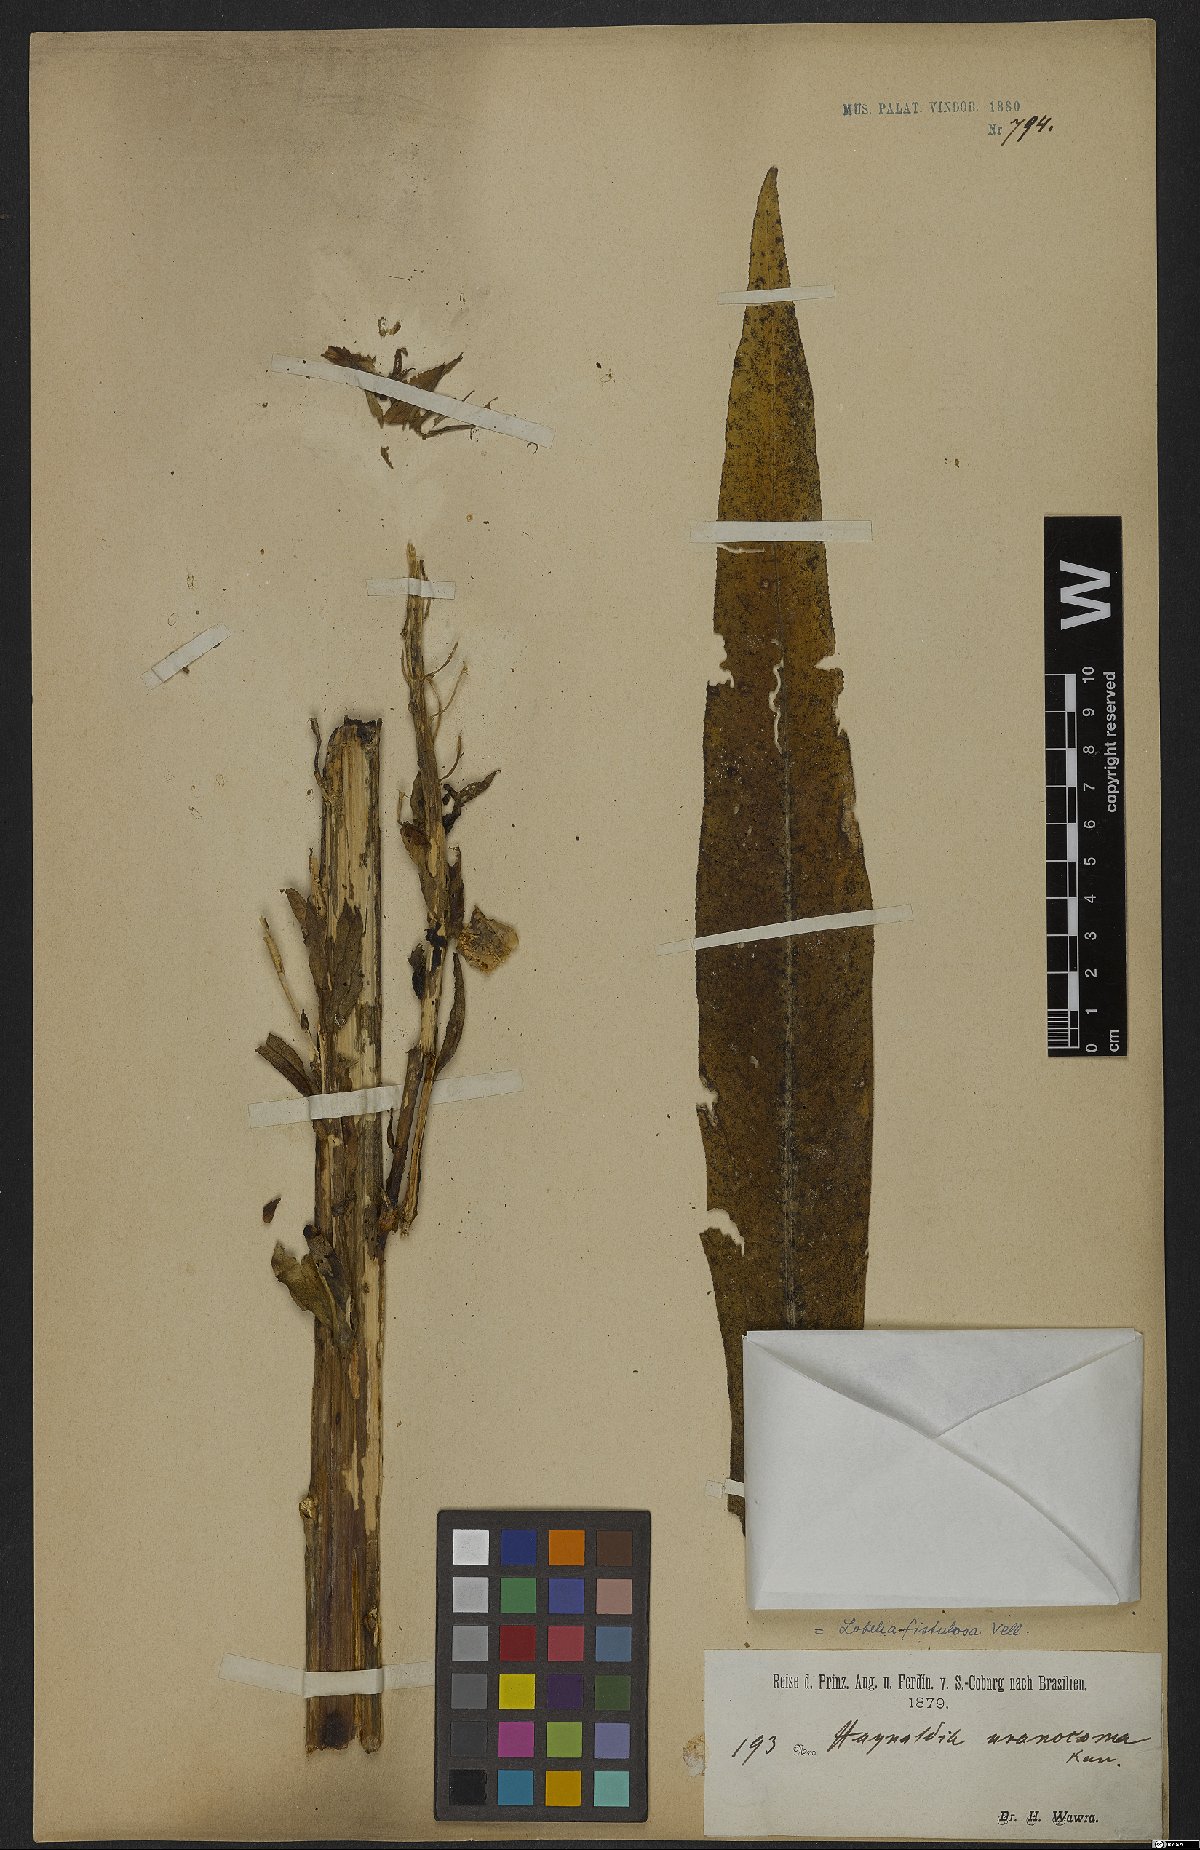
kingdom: Plantae
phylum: Tracheophyta
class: Magnoliopsida
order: Asterales
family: Campanulaceae
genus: Lobelia
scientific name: Lobelia fistulosa
